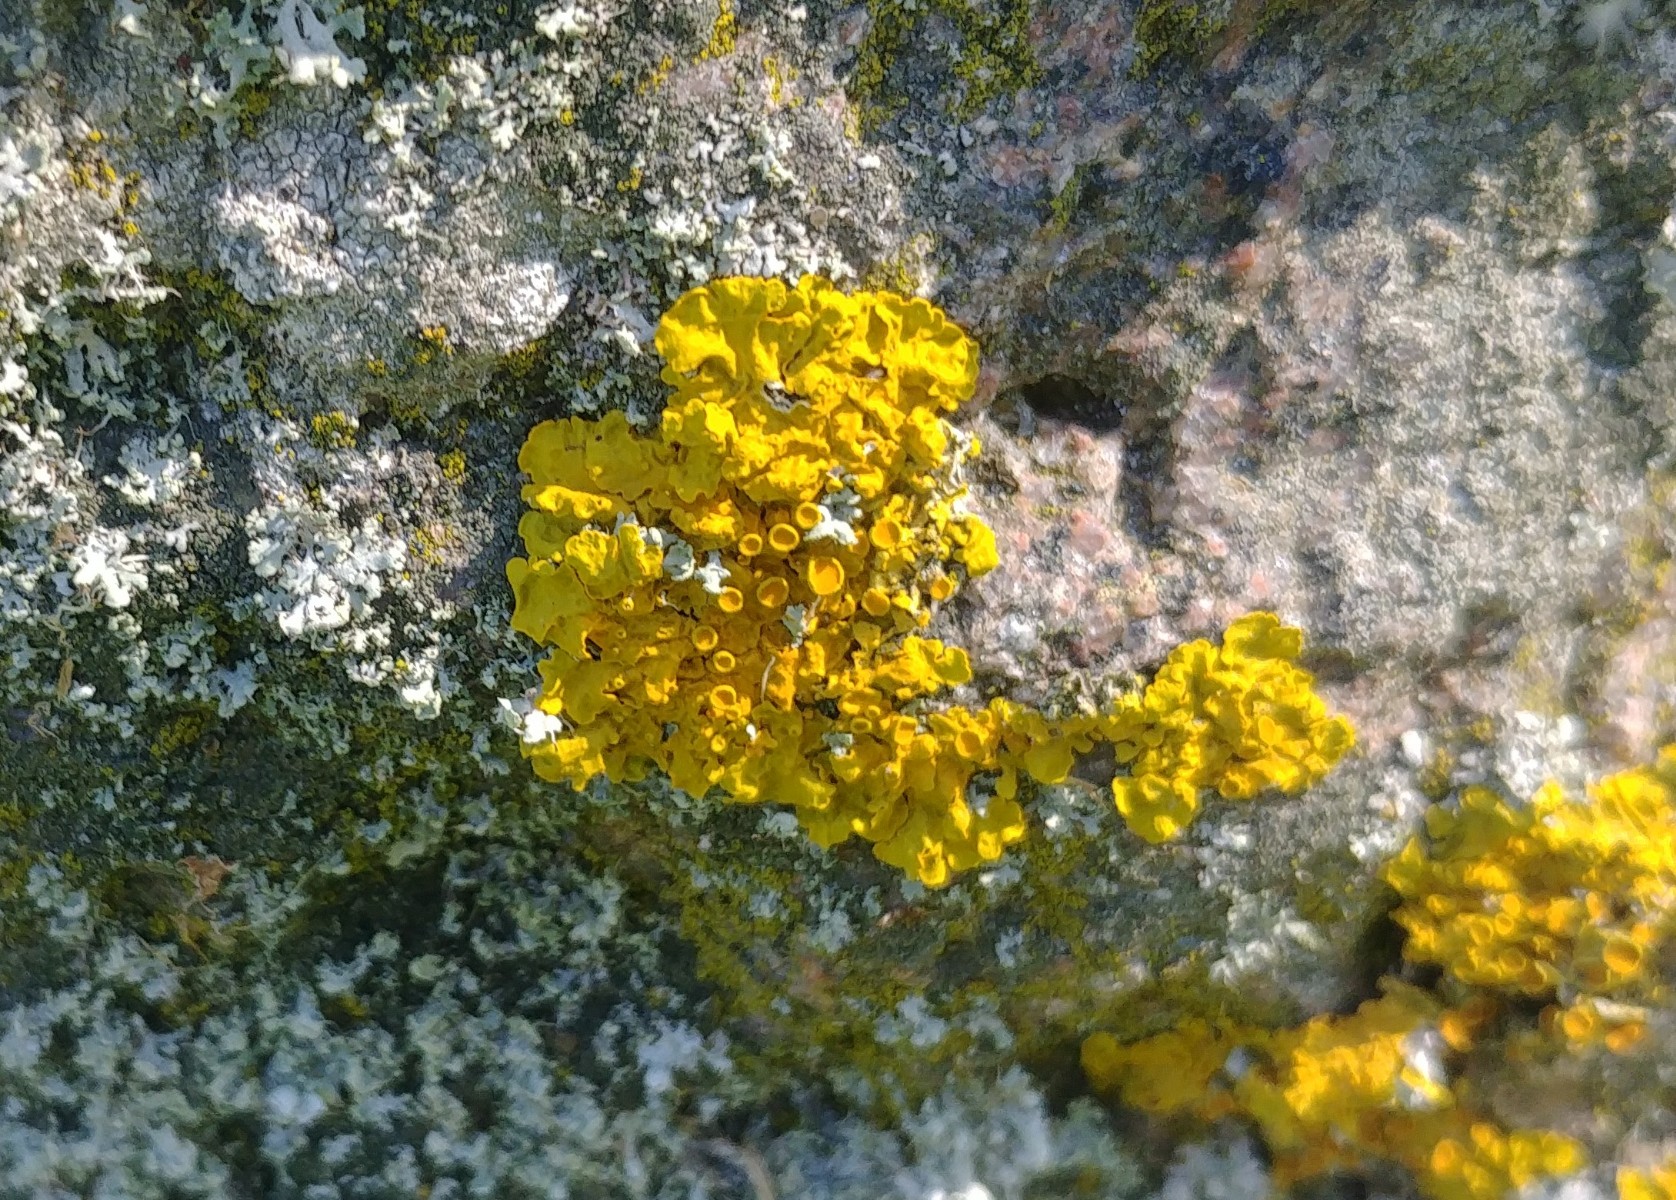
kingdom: Fungi
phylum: Ascomycota
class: Lecanoromycetes
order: Teloschistales
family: Teloschistaceae
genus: Xanthoria
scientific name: Xanthoria parietina
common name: almindelig væggelav
